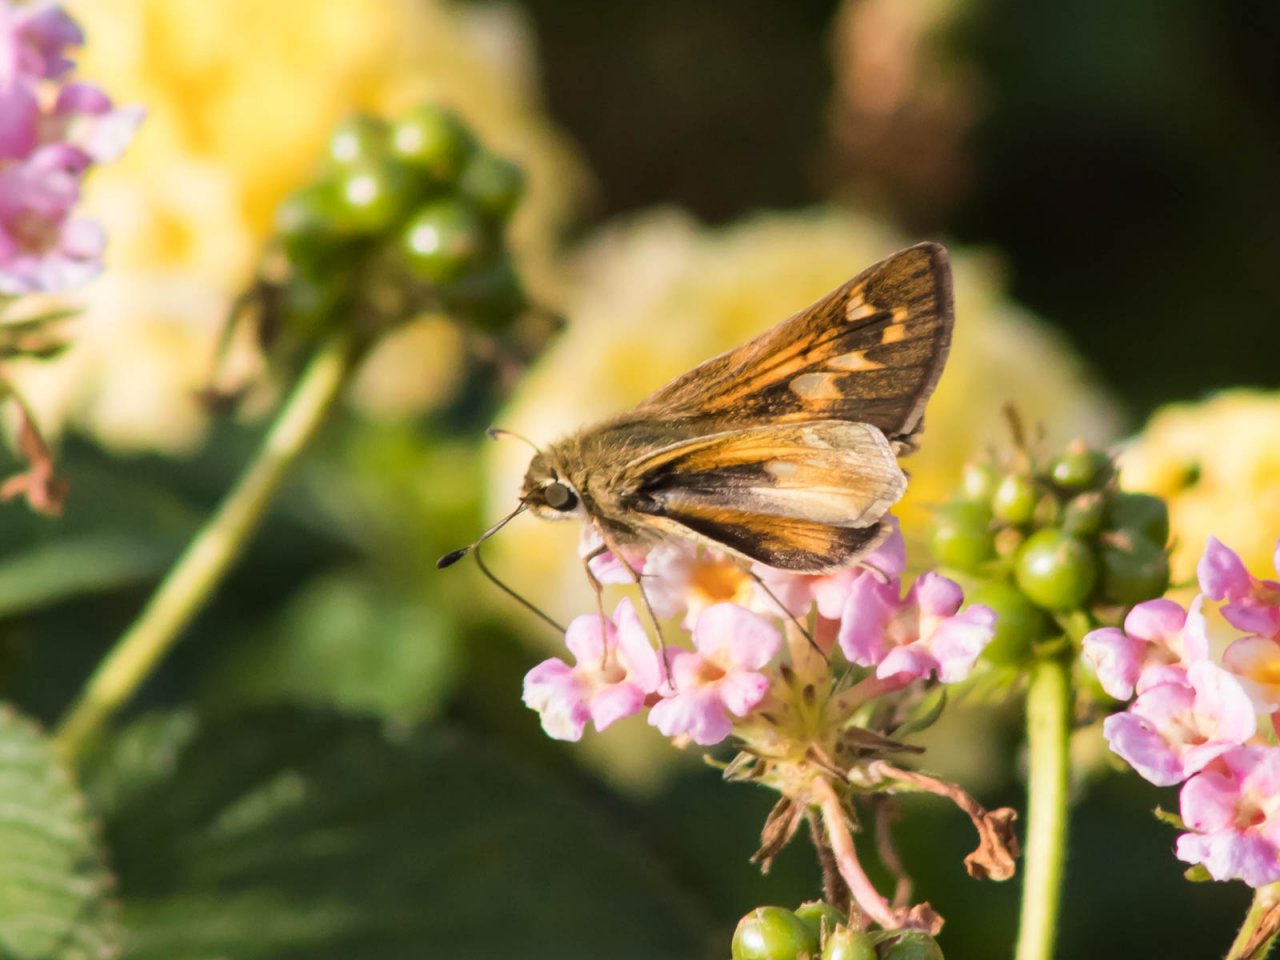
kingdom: Animalia
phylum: Arthropoda
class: Insecta
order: Lepidoptera
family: Hesperiidae
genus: Atalopedes
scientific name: Atalopedes campestris
